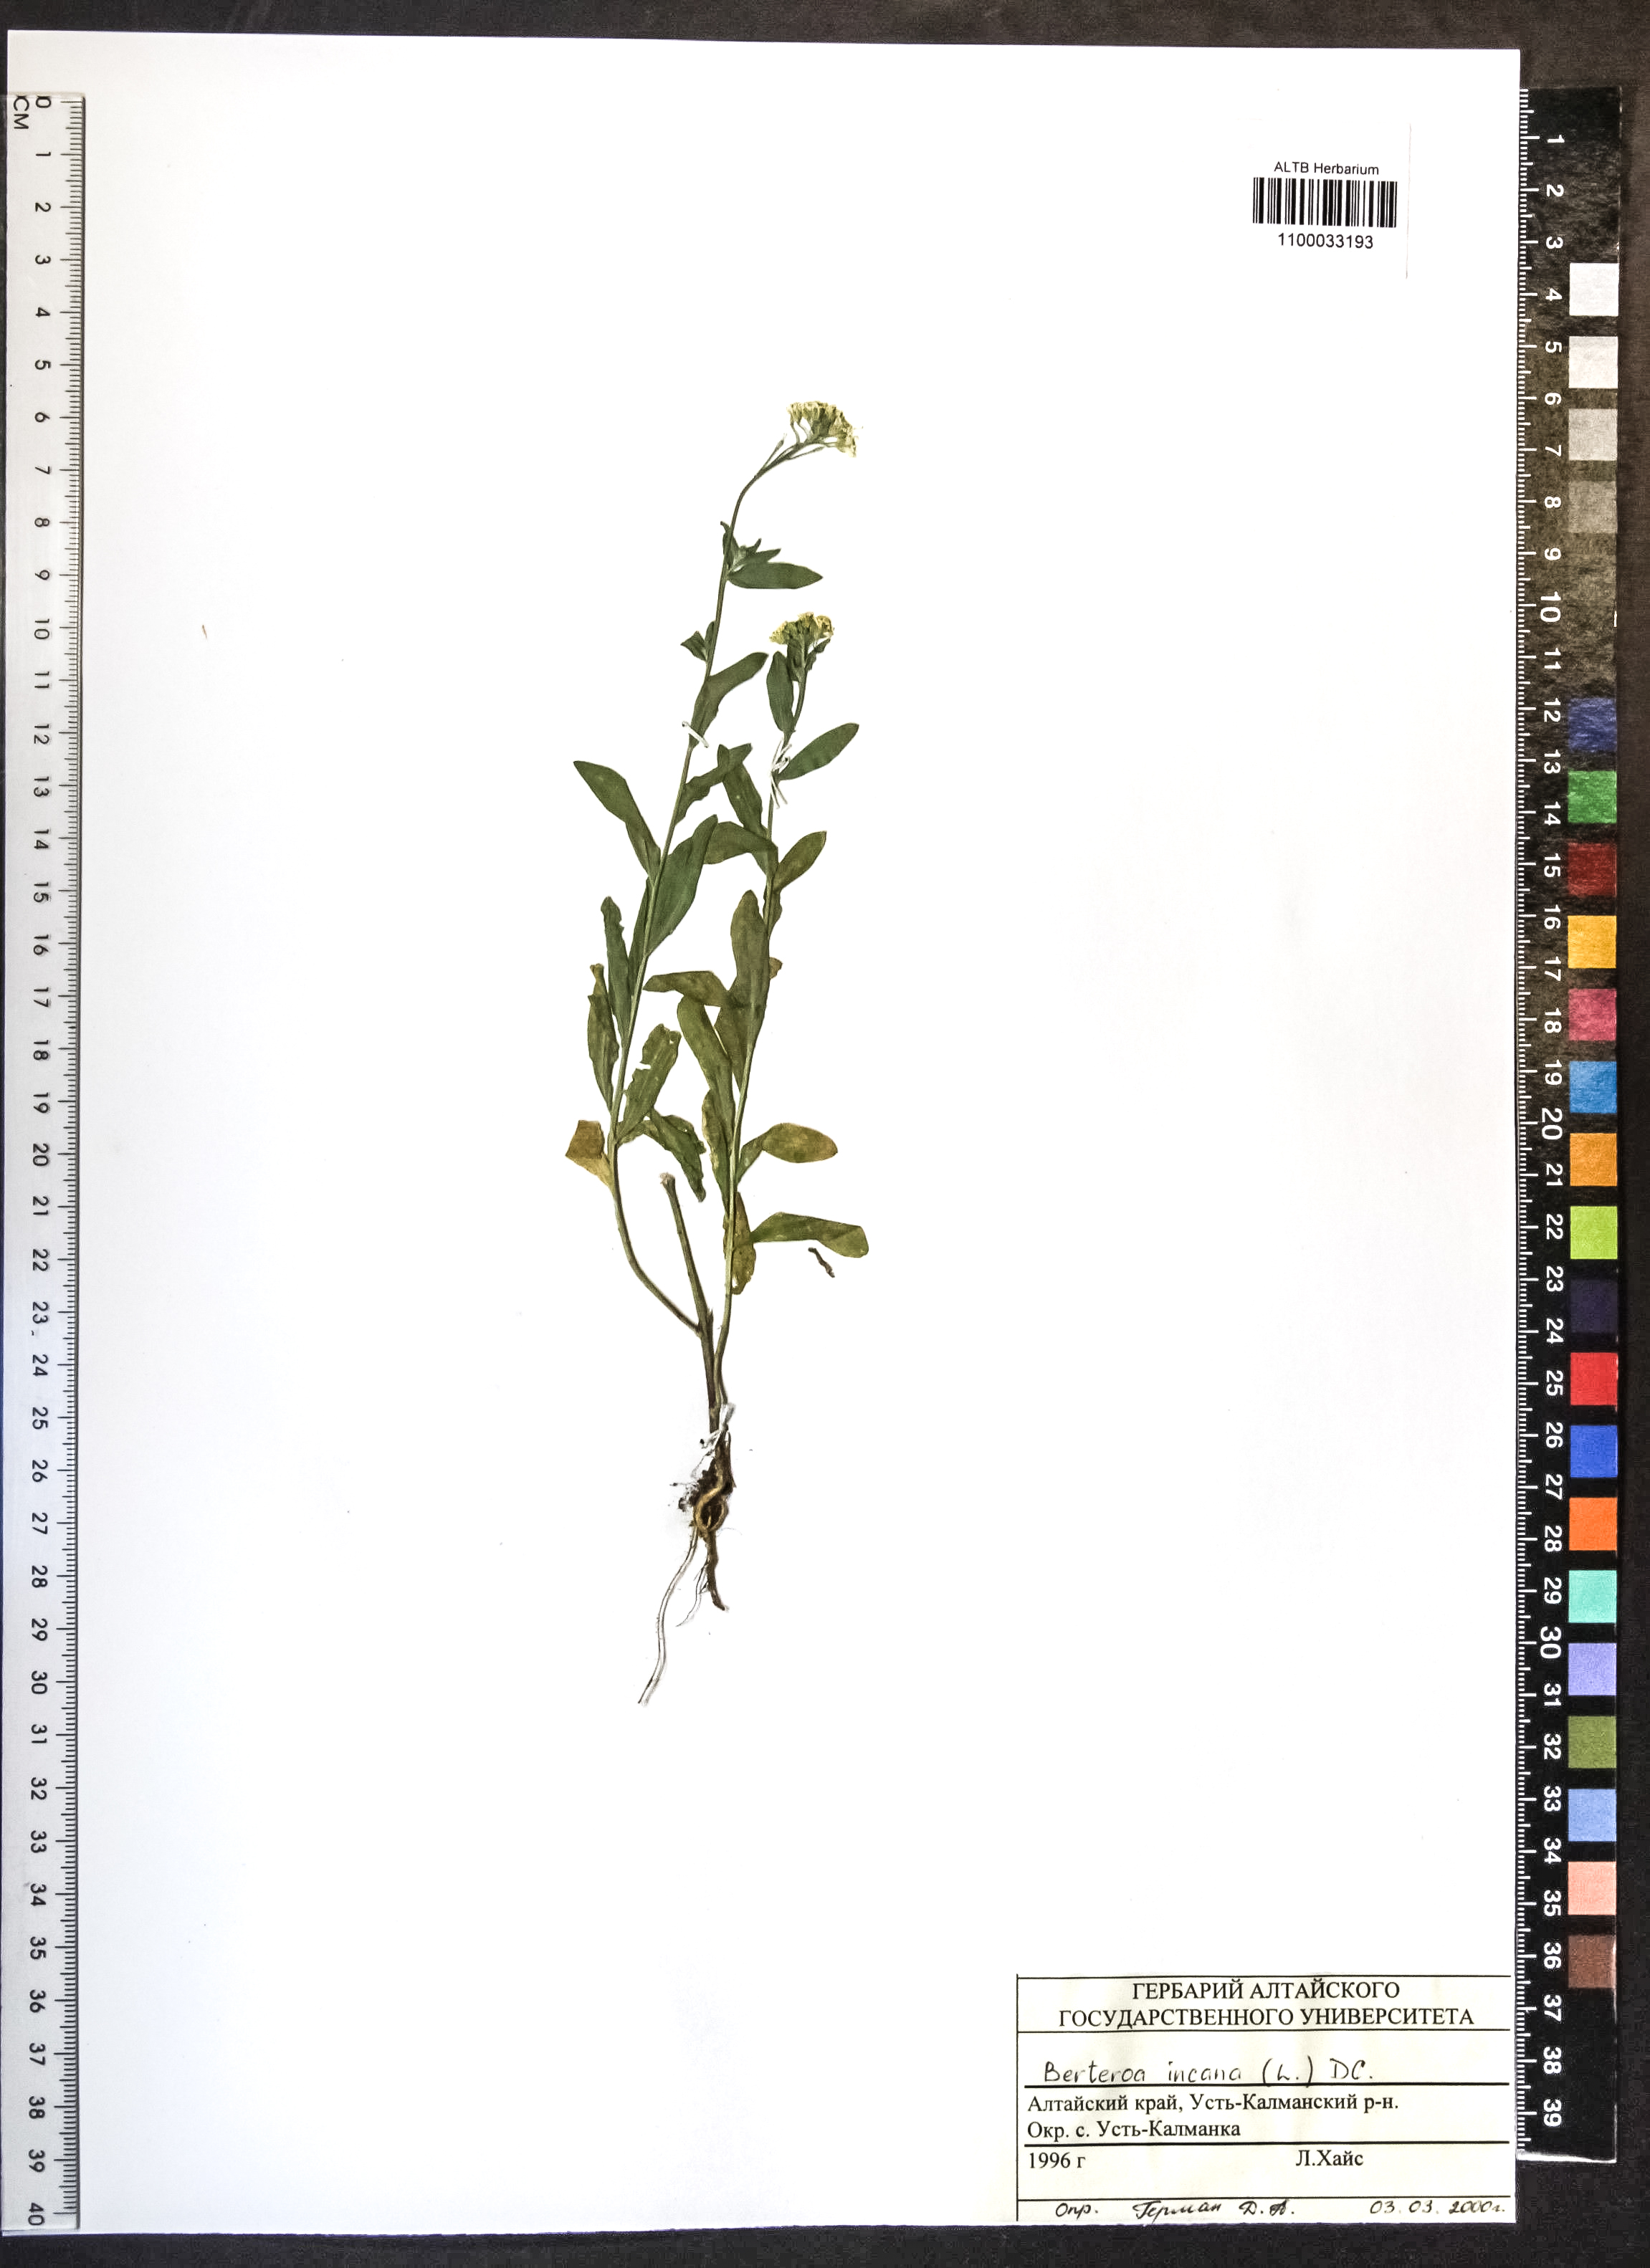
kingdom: Plantae
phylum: Tracheophyta
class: Magnoliopsida
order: Brassicales
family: Brassicaceae
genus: Berteroa
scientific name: Berteroa incana
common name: Hoary alison
